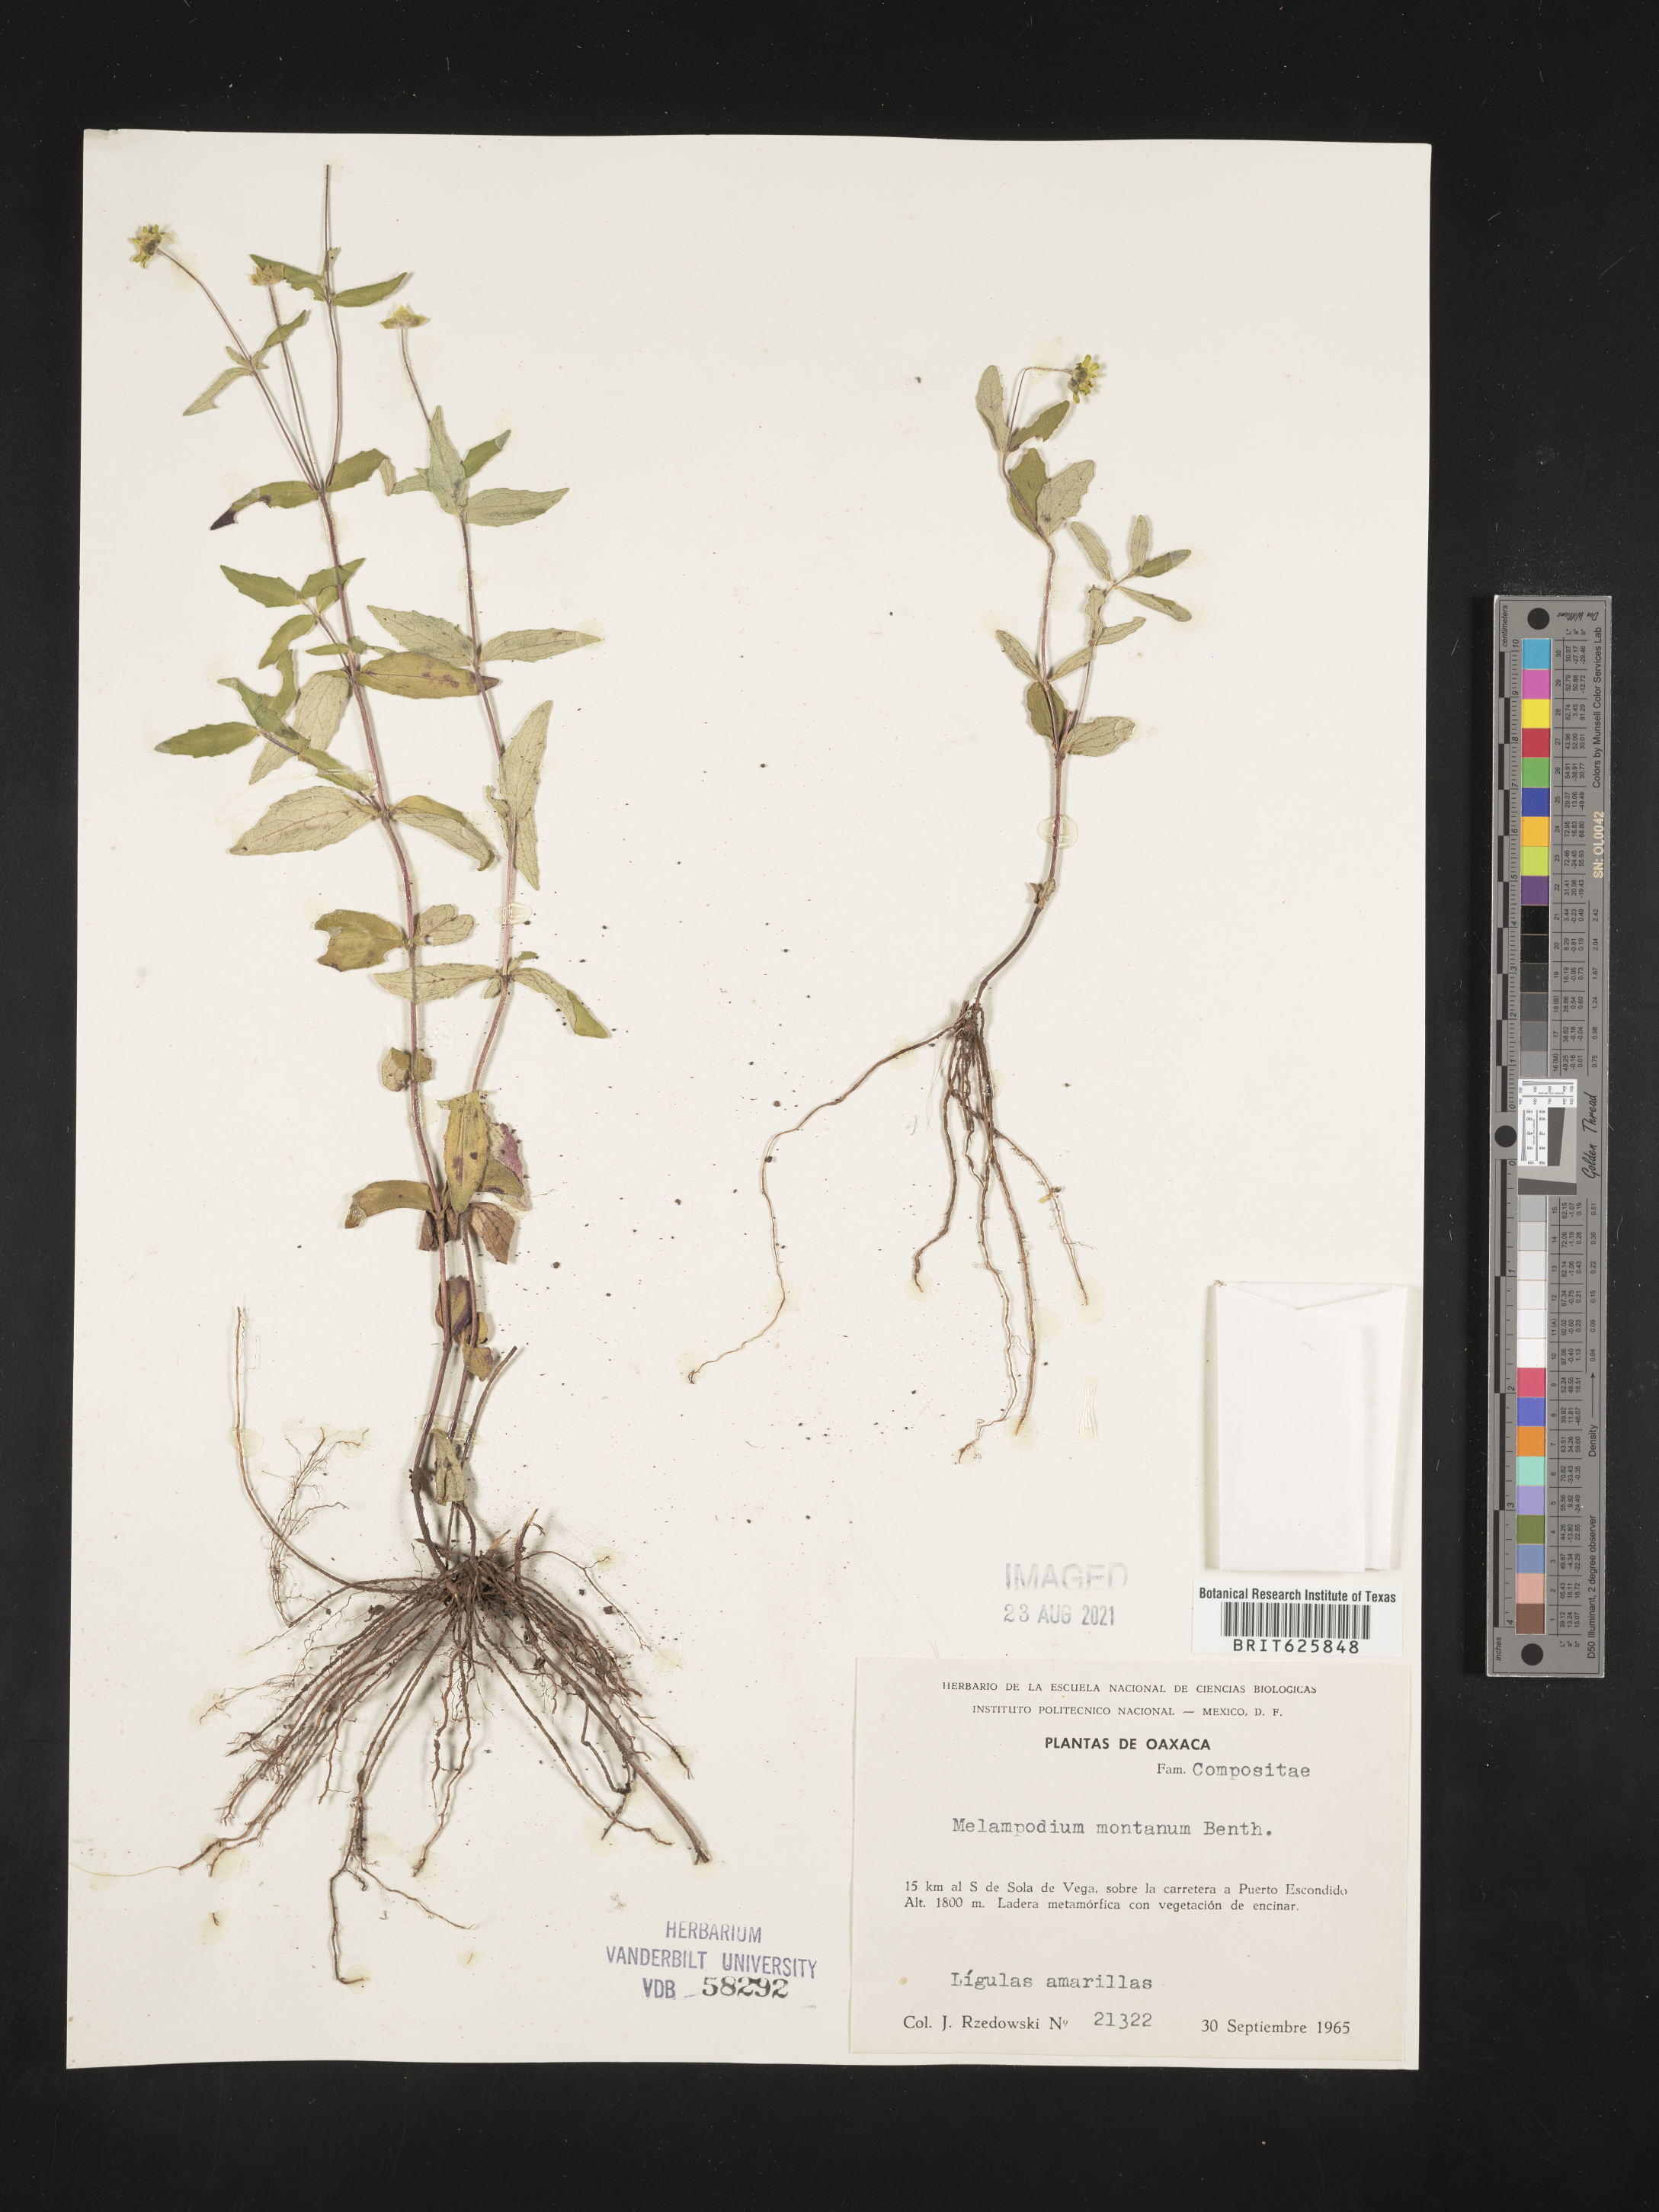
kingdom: Plantae
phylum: Tracheophyta
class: Magnoliopsida
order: Asterales
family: Asteraceae
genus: Melampodium
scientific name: Melampodium
